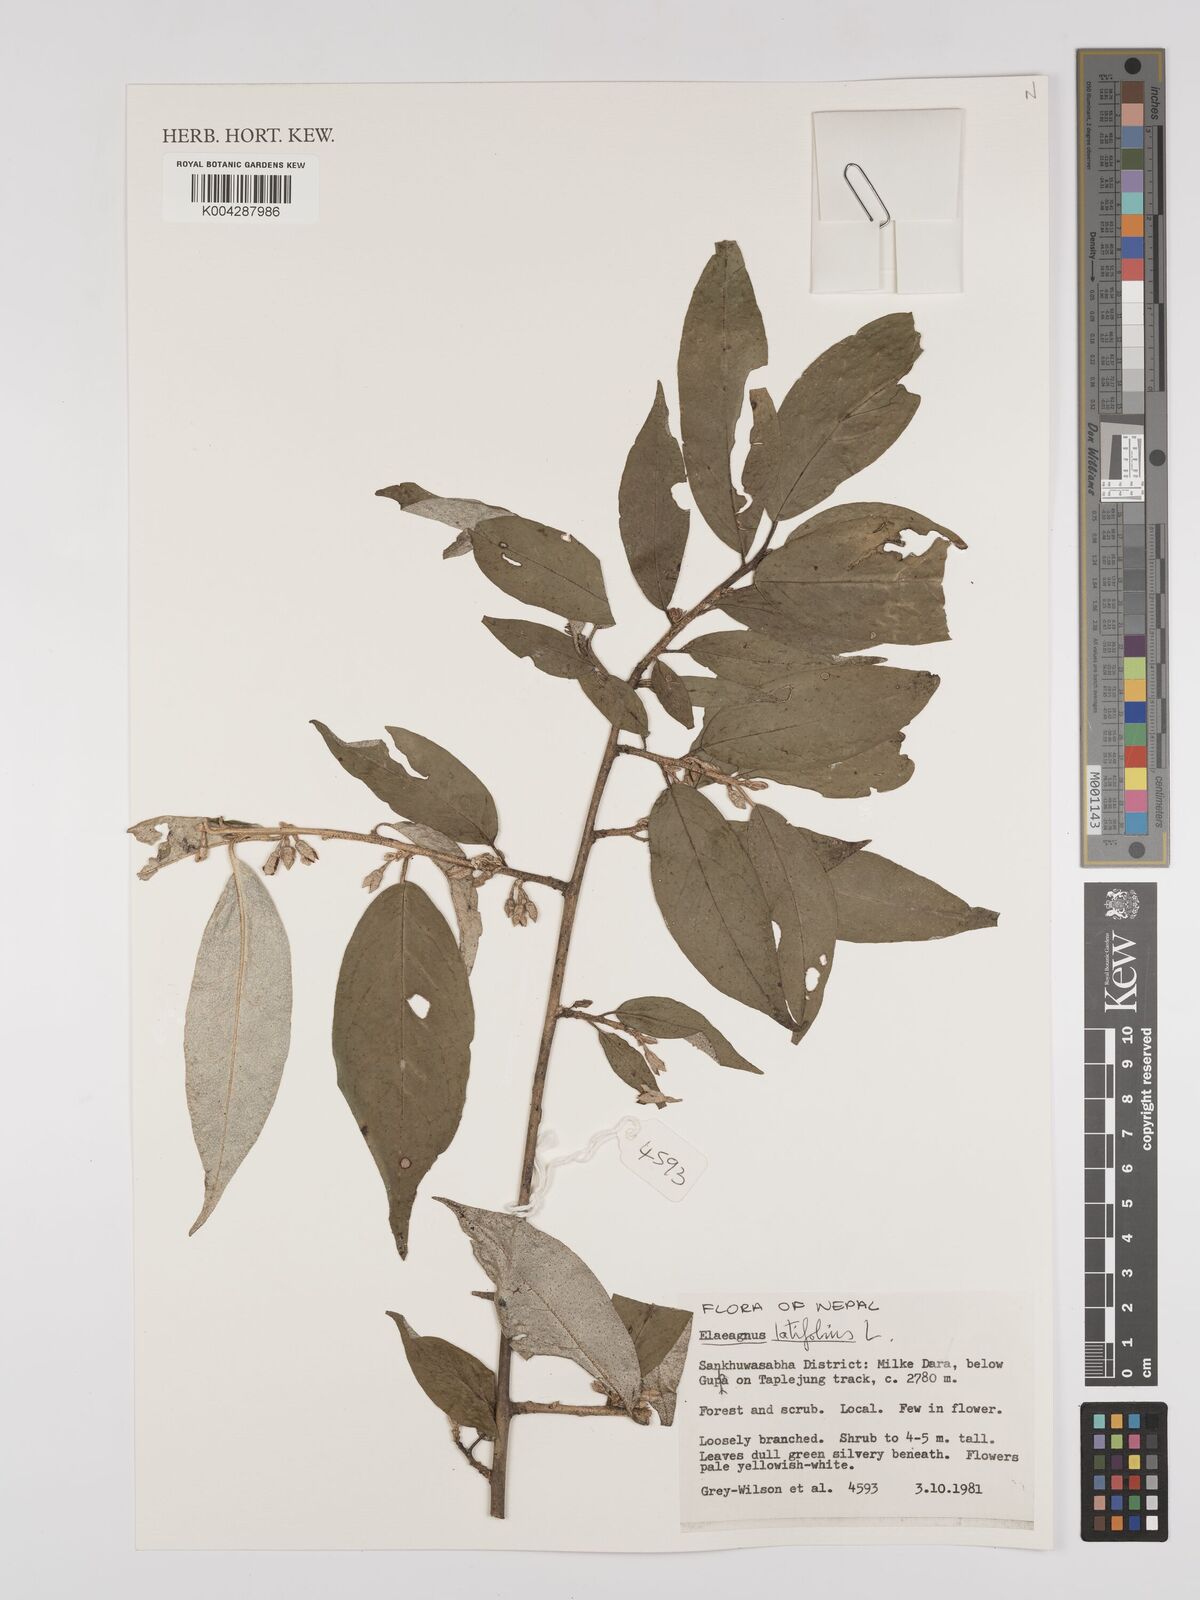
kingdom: Plantae
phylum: Tracheophyta
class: Magnoliopsida
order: Rosales
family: Elaeagnaceae
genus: Elaeagnus
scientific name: Elaeagnus latifolia
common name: Oleaster
